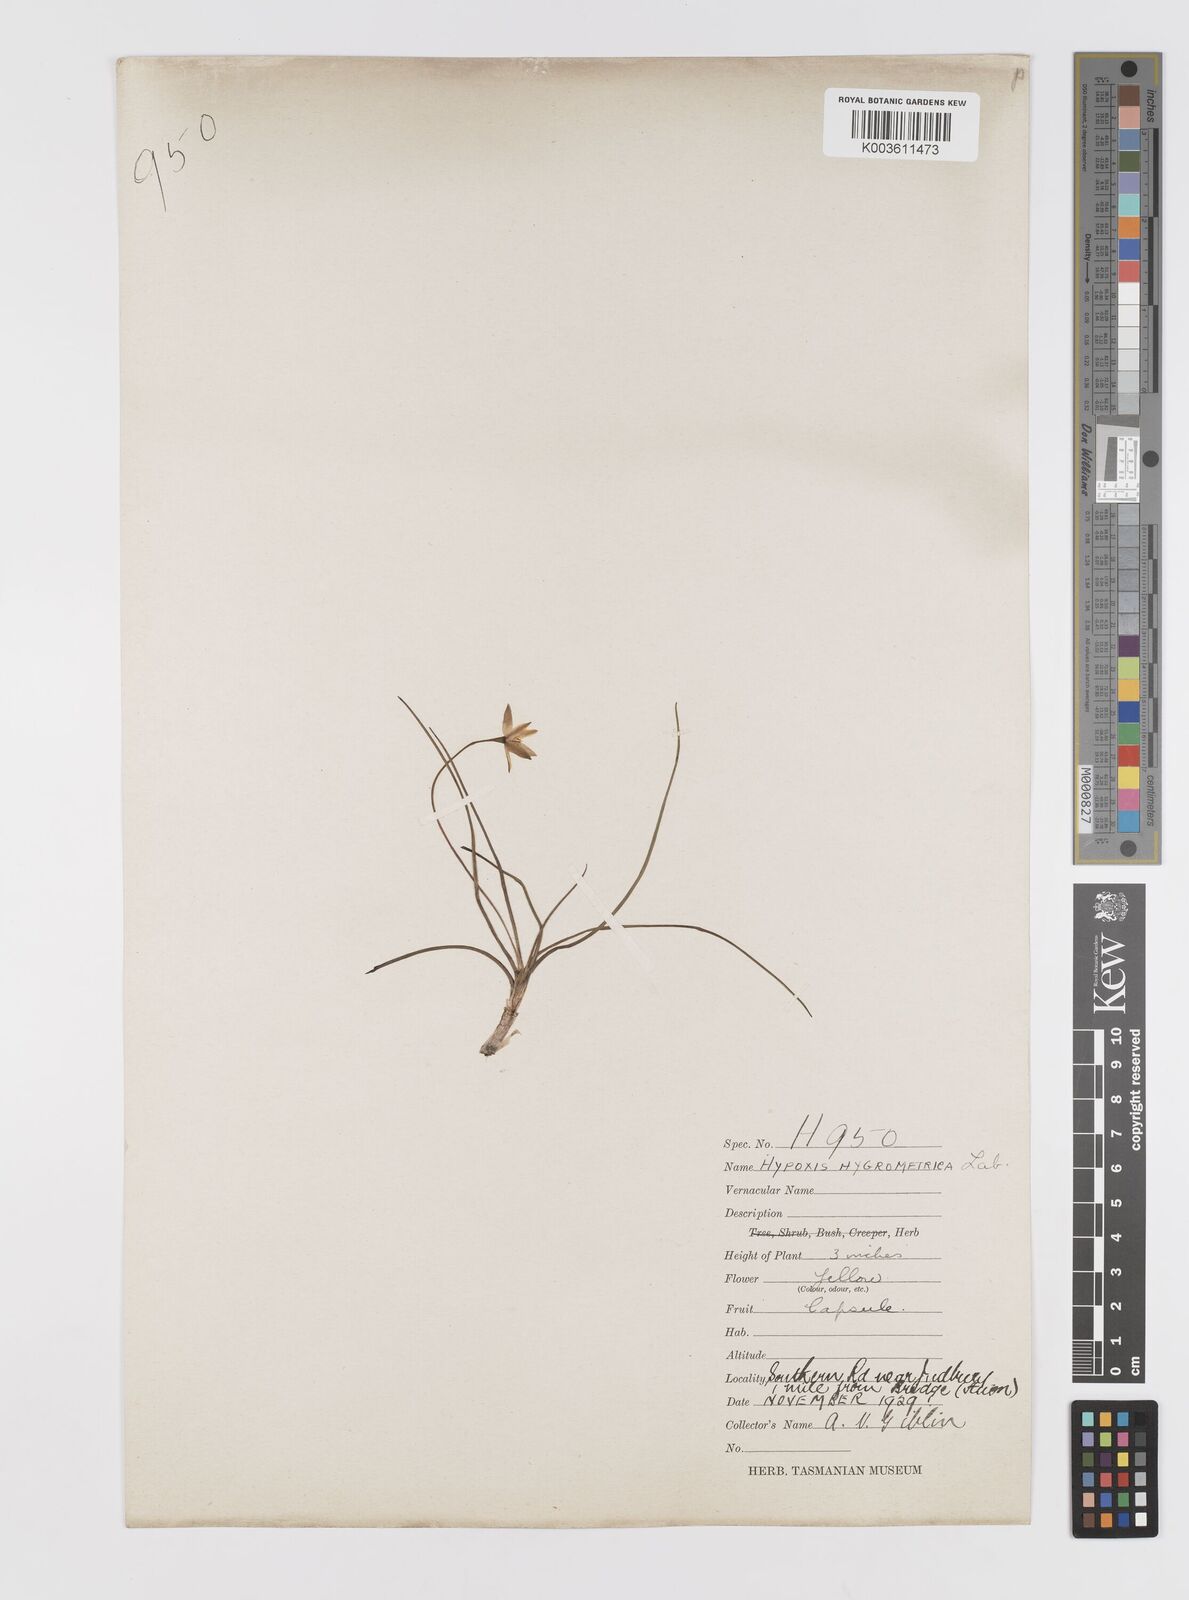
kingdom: Plantae
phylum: Tracheophyta
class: Liliopsida
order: Asparagales
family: Hypoxidaceae
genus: Hypoxis
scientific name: Hypoxis hygrometrica
